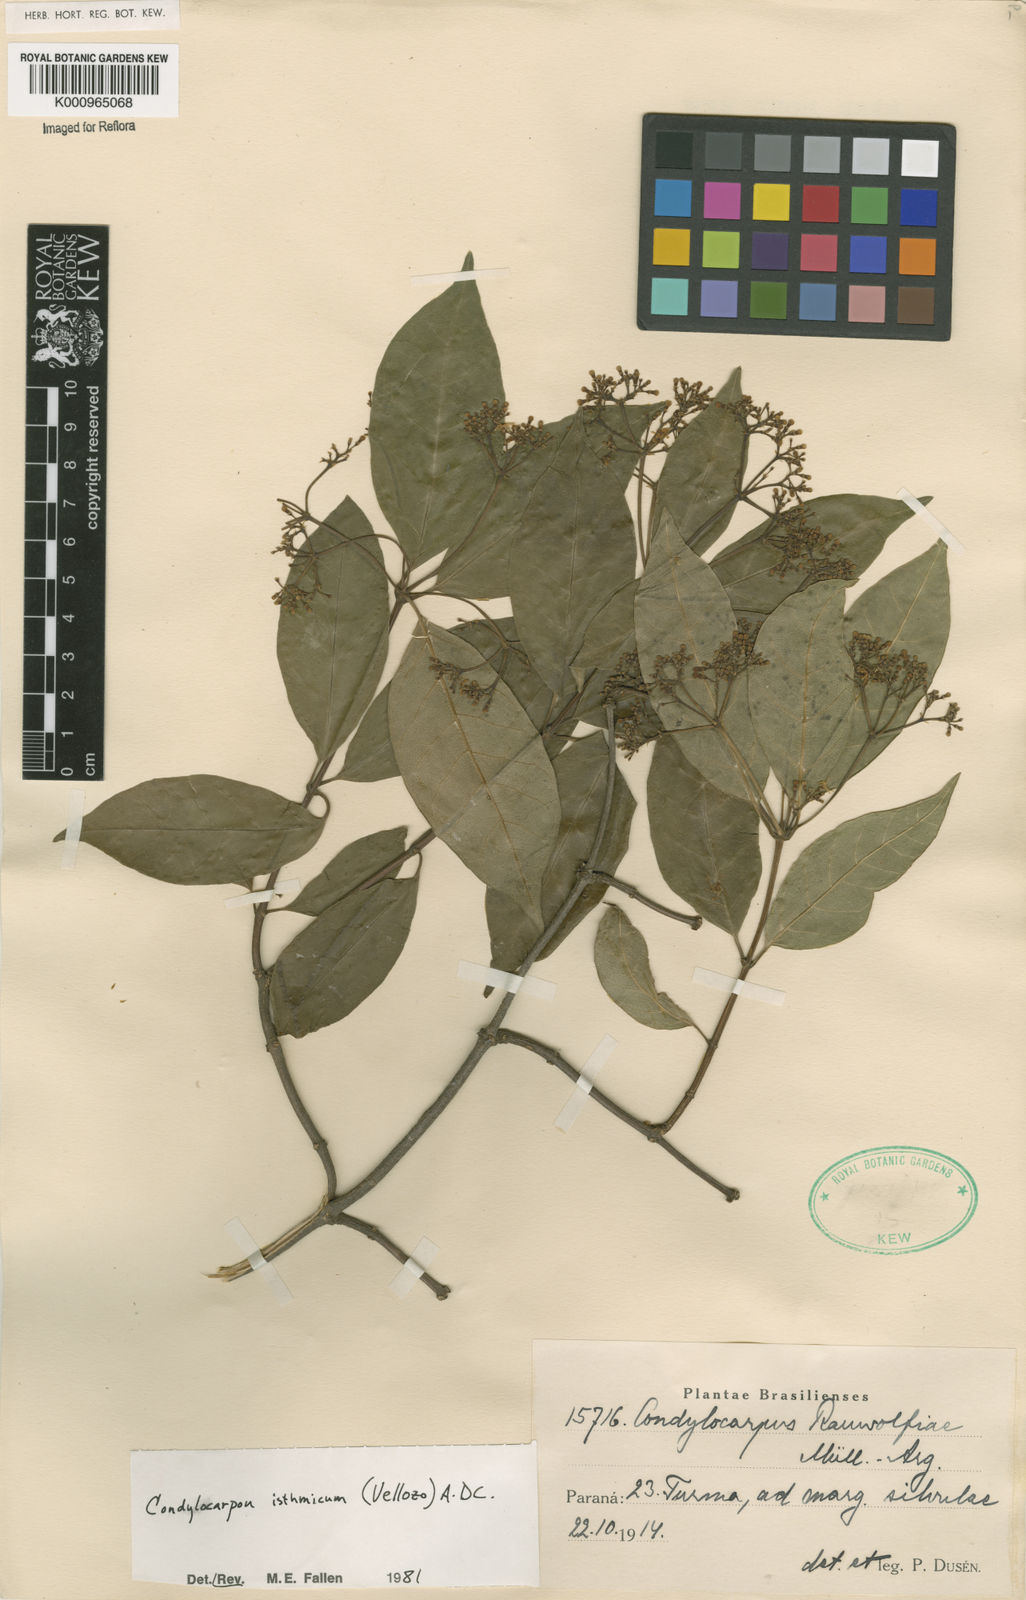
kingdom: Plantae
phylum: Tracheophyta
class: Magnoliopsida
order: Gentianales
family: Apocynaceae
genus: Condylocarpon
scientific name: Condylocarpon isthmicum
